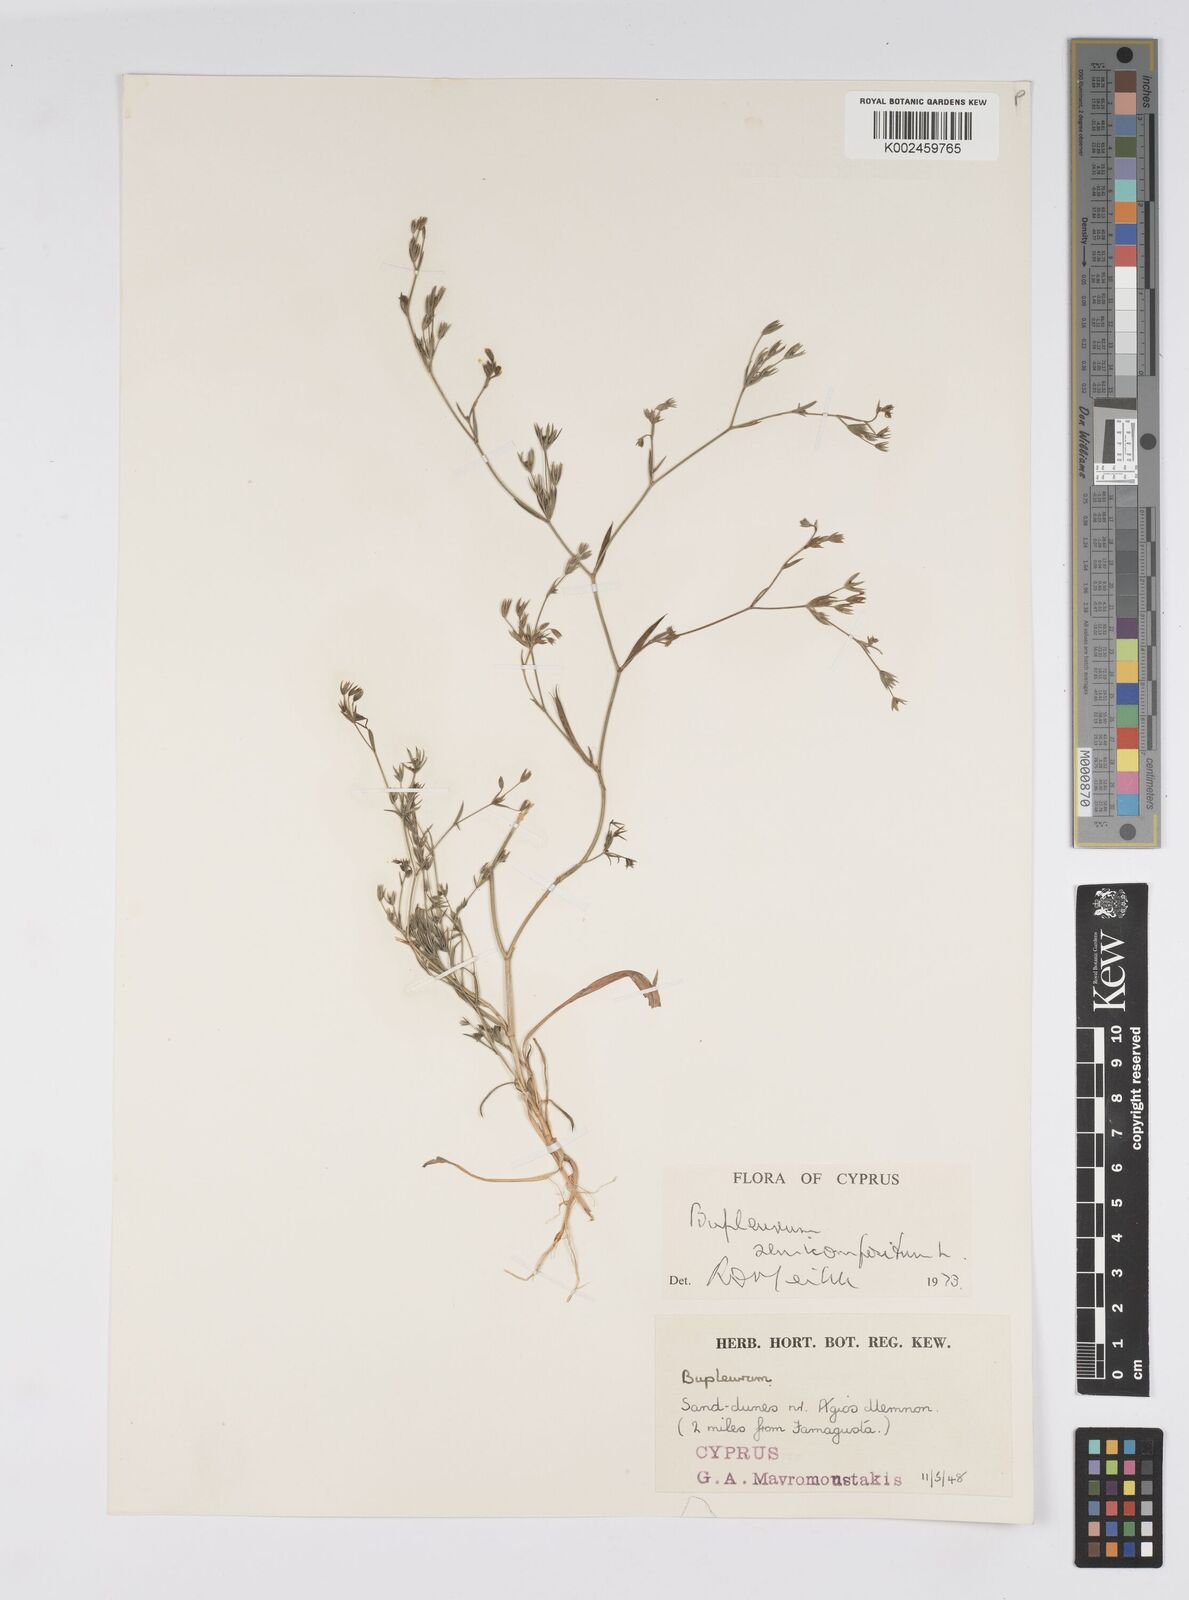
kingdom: Plantae
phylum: Tracheophyta
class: Magnoliopsida
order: Apiales
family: Apiaceae
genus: Bupleurum
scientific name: Bupleurum semicompositum
